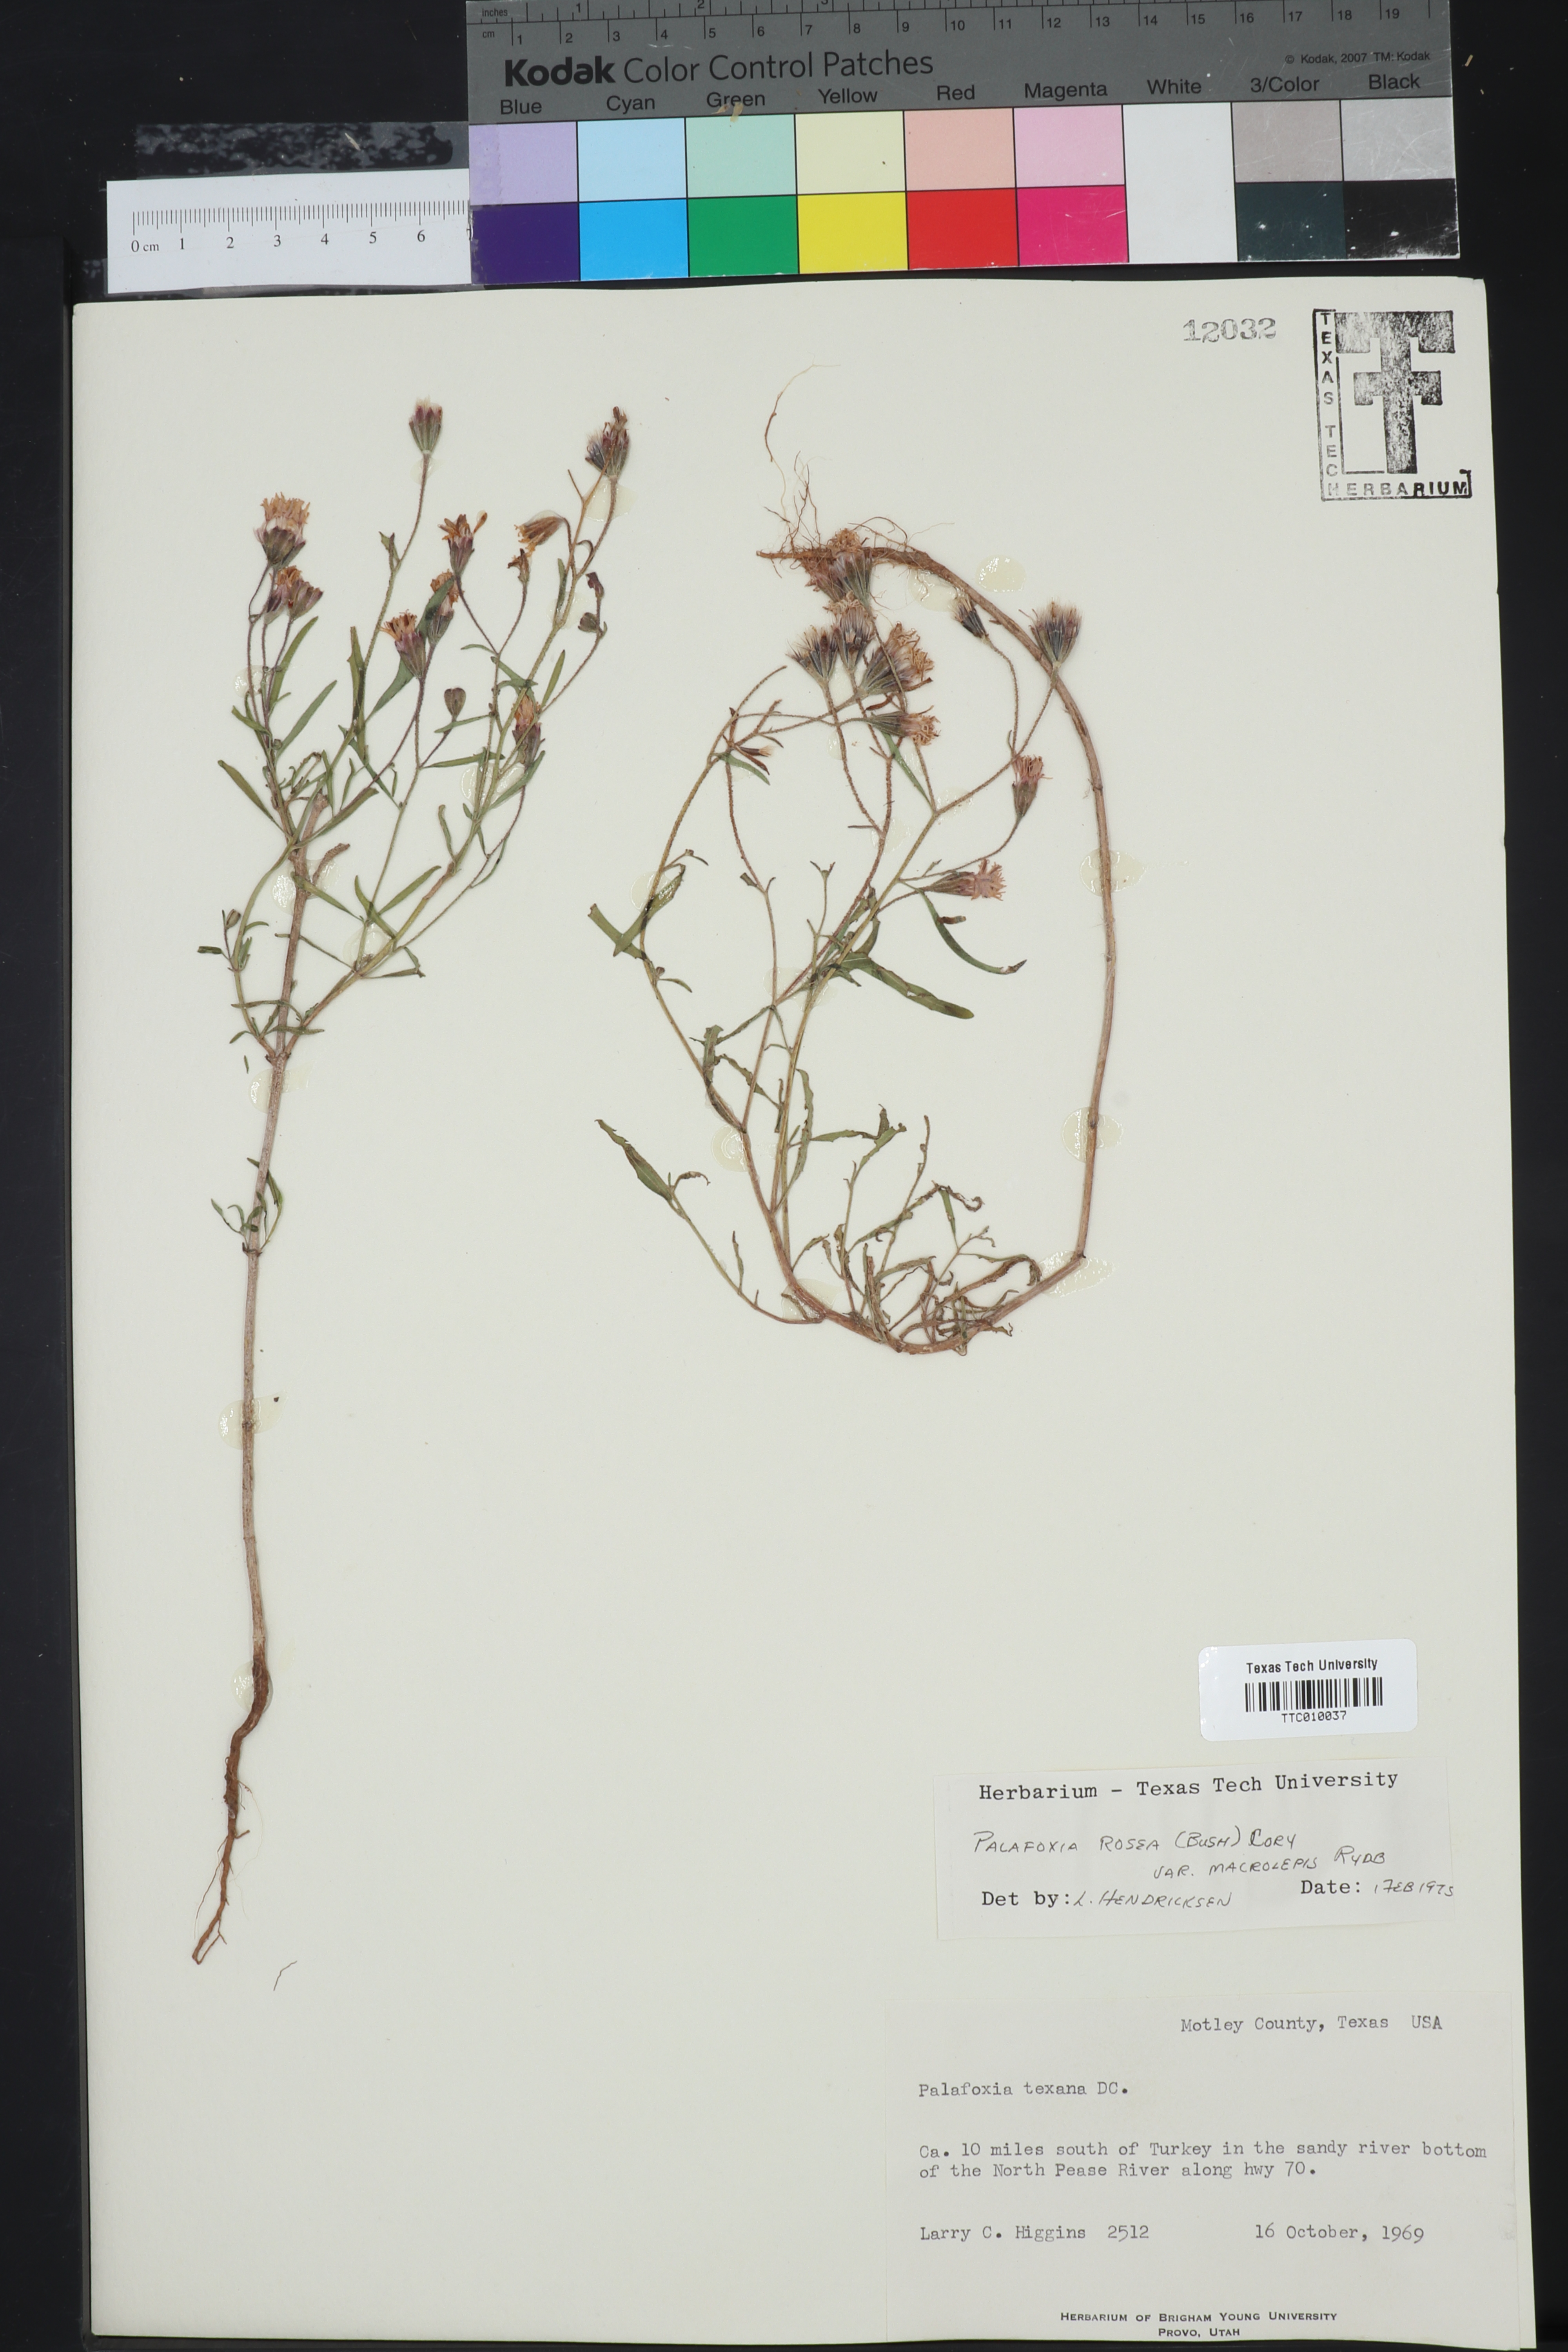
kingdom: Plantae
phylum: Tracheophyta
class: Magnoliopsida
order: Asterales
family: Asteraceae
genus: Palafoxia
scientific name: Palafoxia rosea
